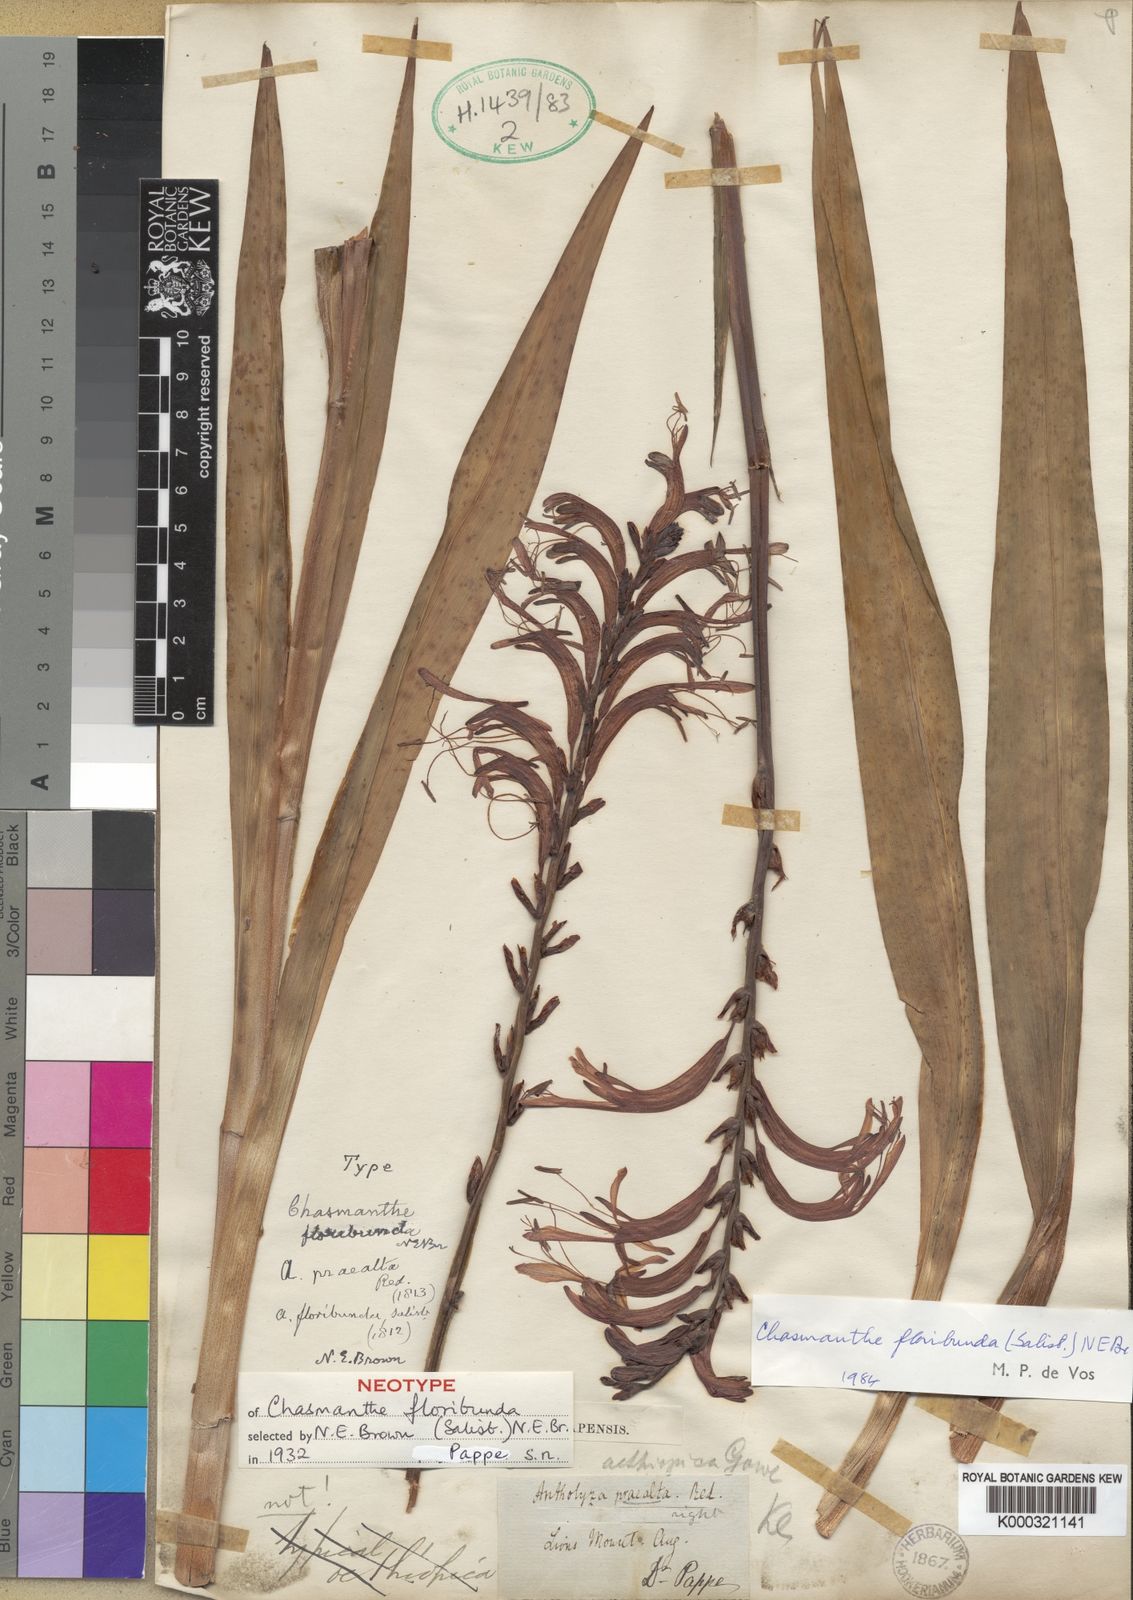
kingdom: Plantae
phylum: Tracheophyta
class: Liliopsida
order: Asparagales
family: Iridaceae
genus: Chasmanthe
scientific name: Chasmanthe floribunda
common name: African cornflag
